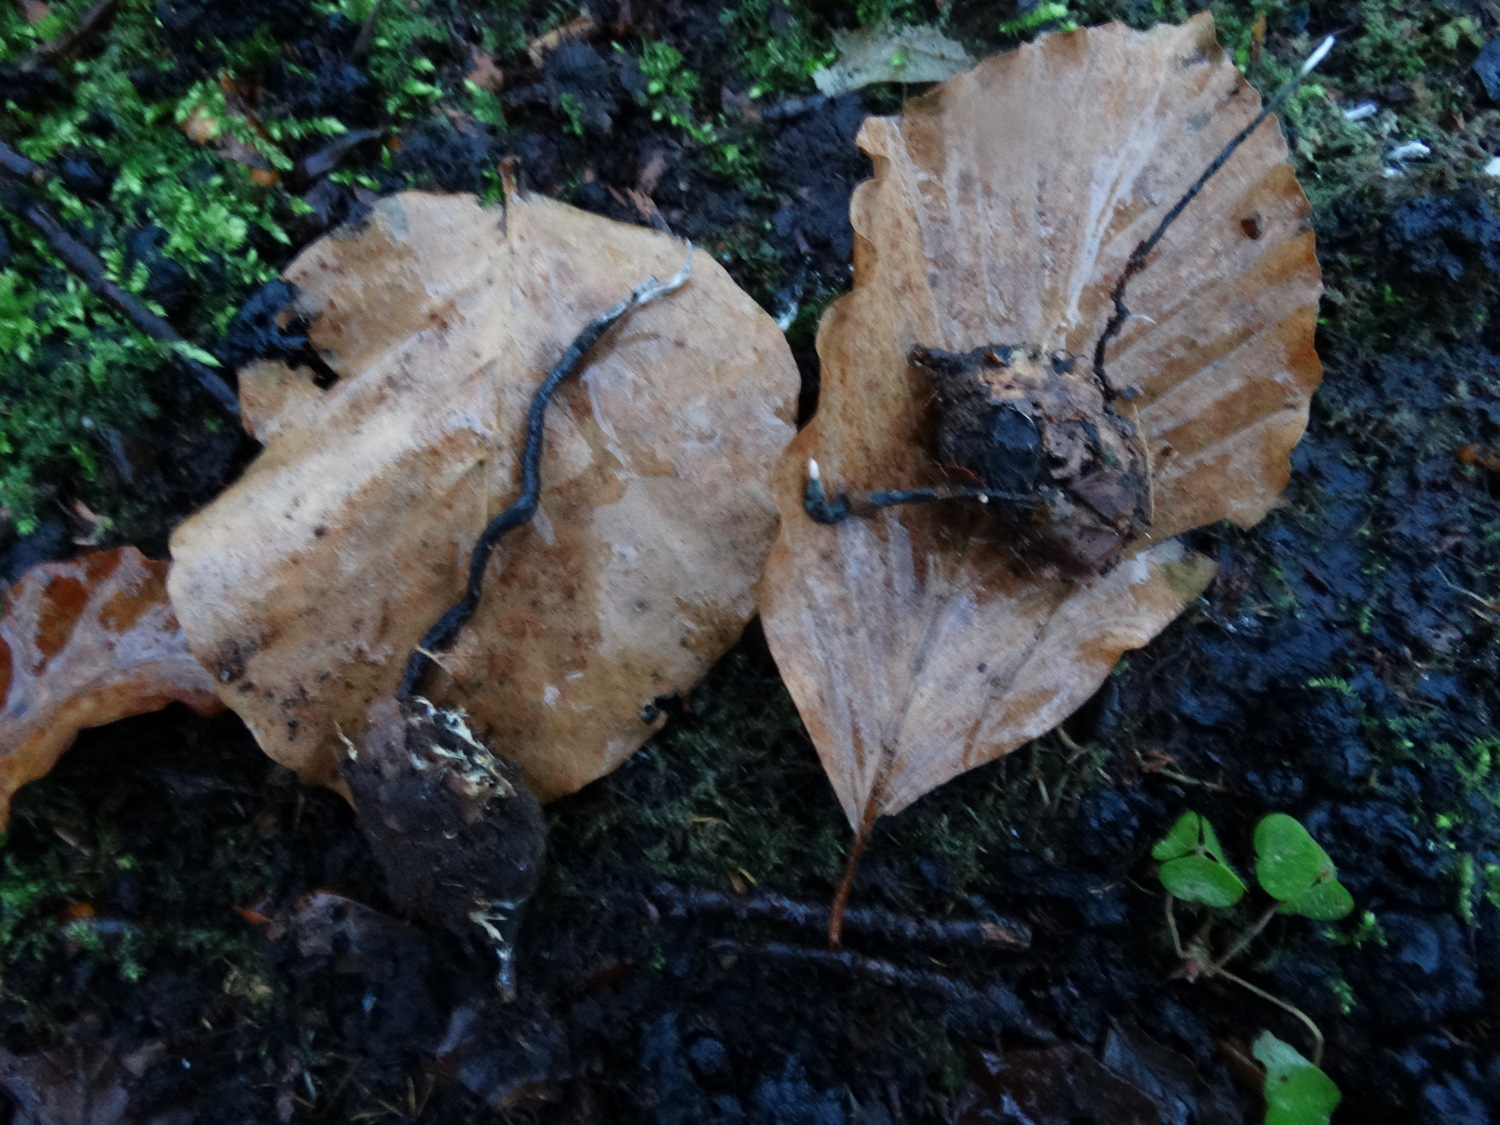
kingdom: Fungi
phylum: Ascomycota
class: Sordariomycetes
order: Xylariales
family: Xylariaceae
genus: Xylaria
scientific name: Xylaria carpophila
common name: bogskål-stødsvamp
